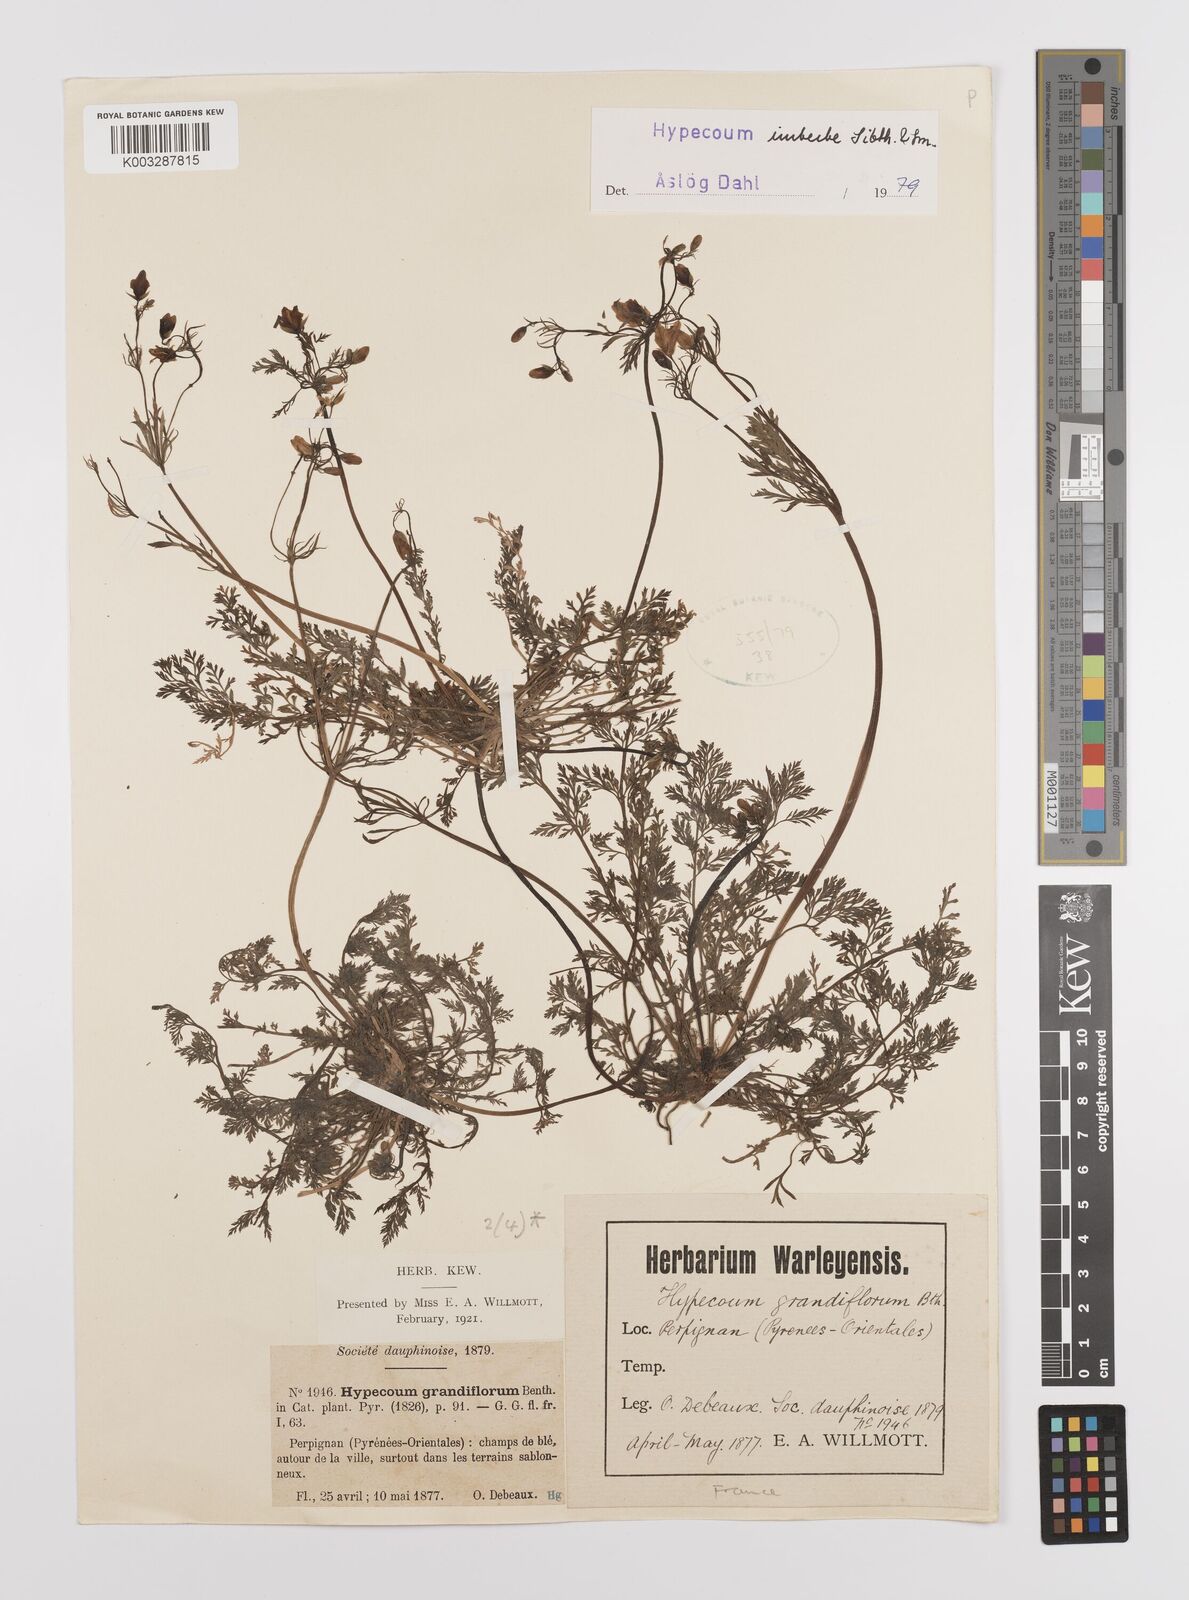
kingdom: Plantae
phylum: Tracheophyta
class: Magnoliopsida
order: Ranunculales
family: Papaveraceae
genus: Hypecoum
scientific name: Hypecoum imberbe
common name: Sicklefruit hypecoum
